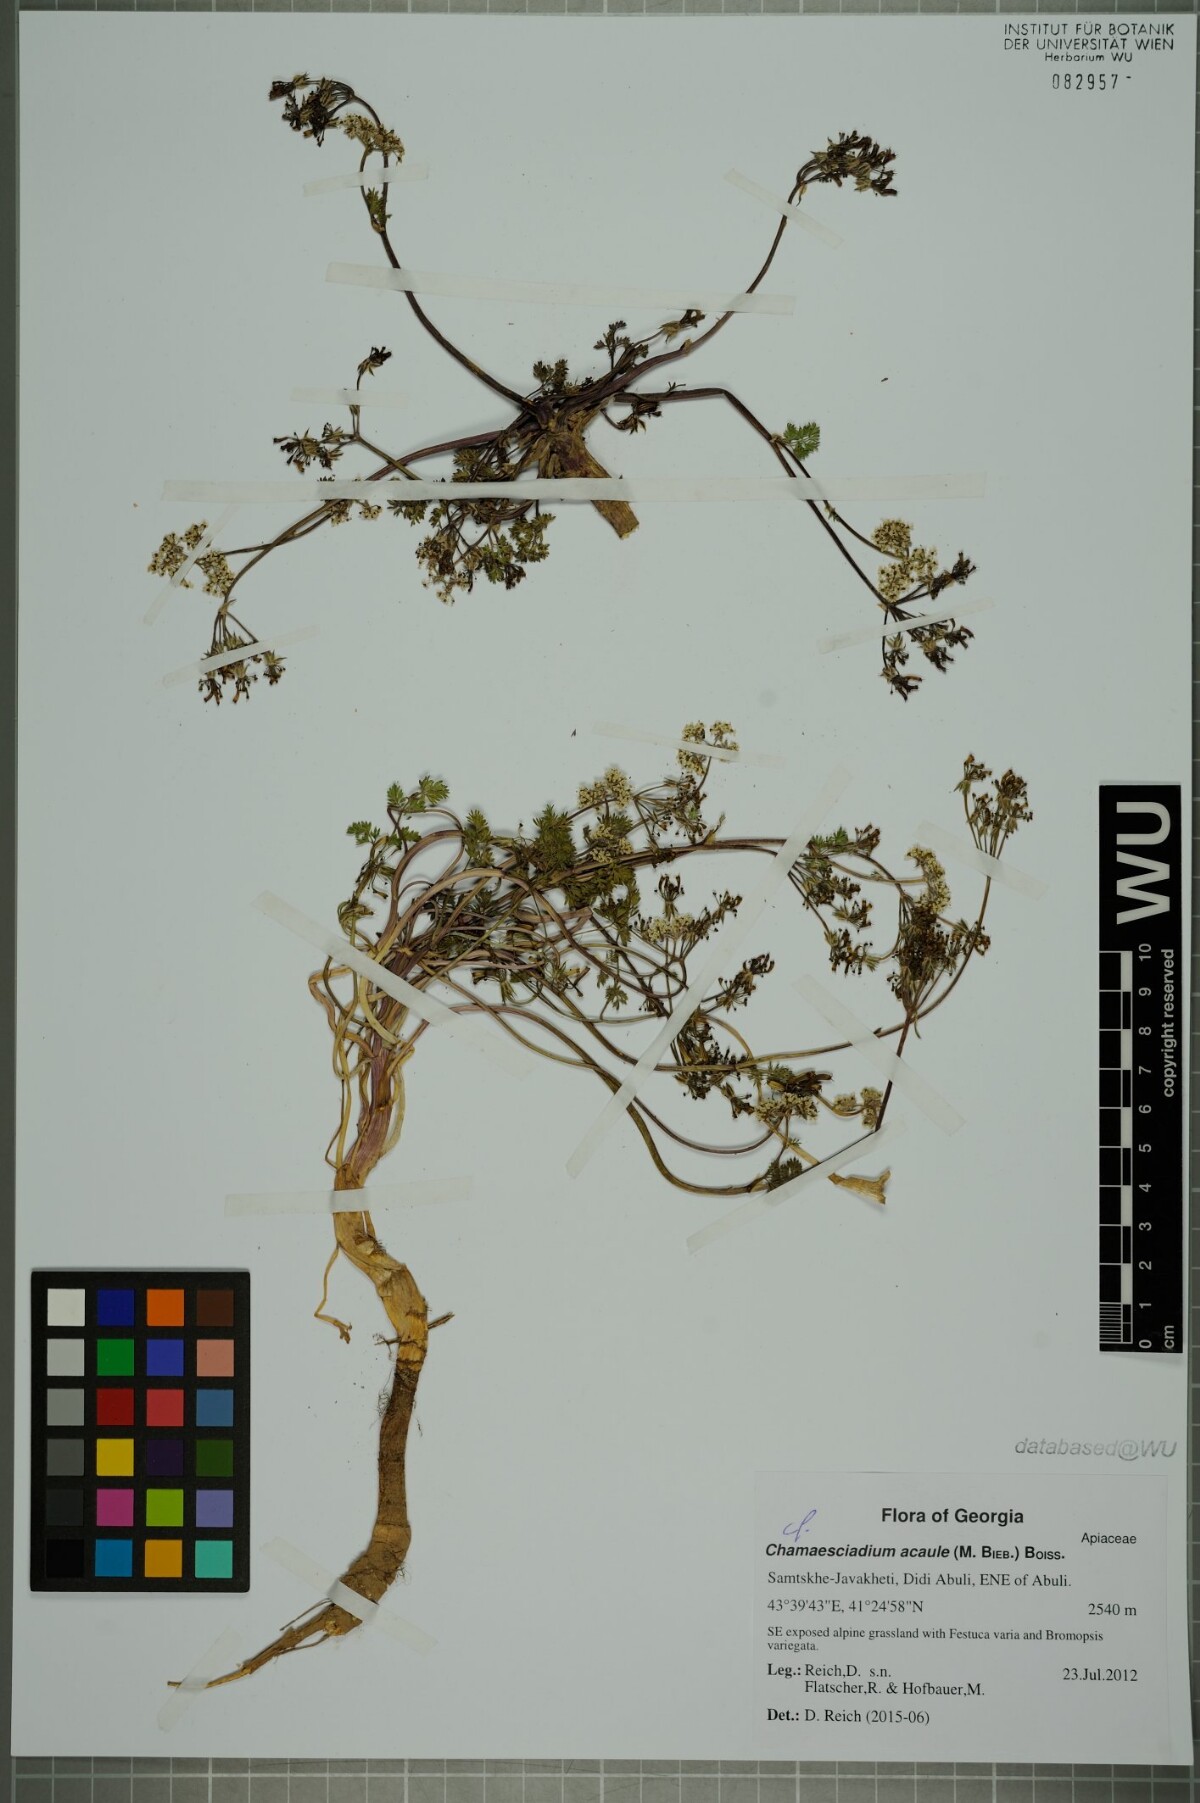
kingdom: Plantae
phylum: Tracheophyta
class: Magnoliopsida
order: Apiales
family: Apiaceae
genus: Chamaesciadium
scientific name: Chamaesciadium acaule
